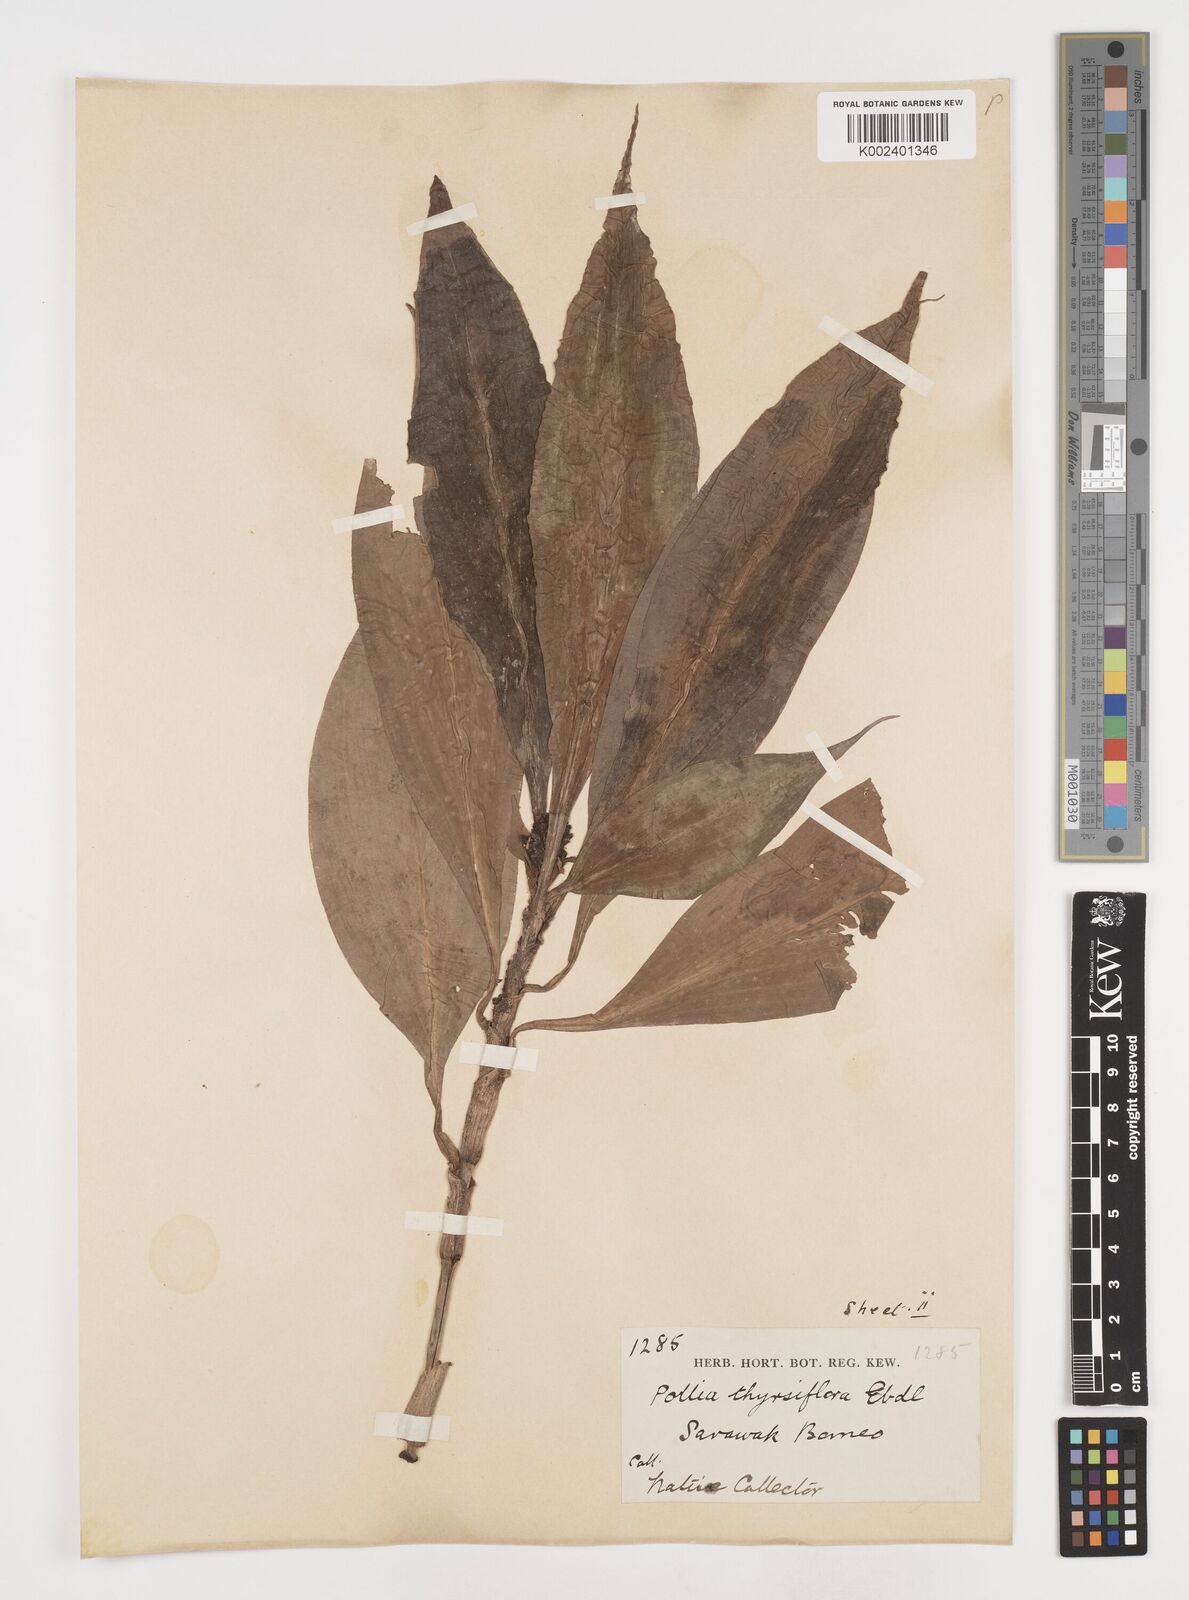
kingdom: Plantae
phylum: Tracheophyta
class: Liliopsida
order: Commelinales
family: Commelinaceae
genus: Pollia
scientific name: Pollia thyrsiflora
